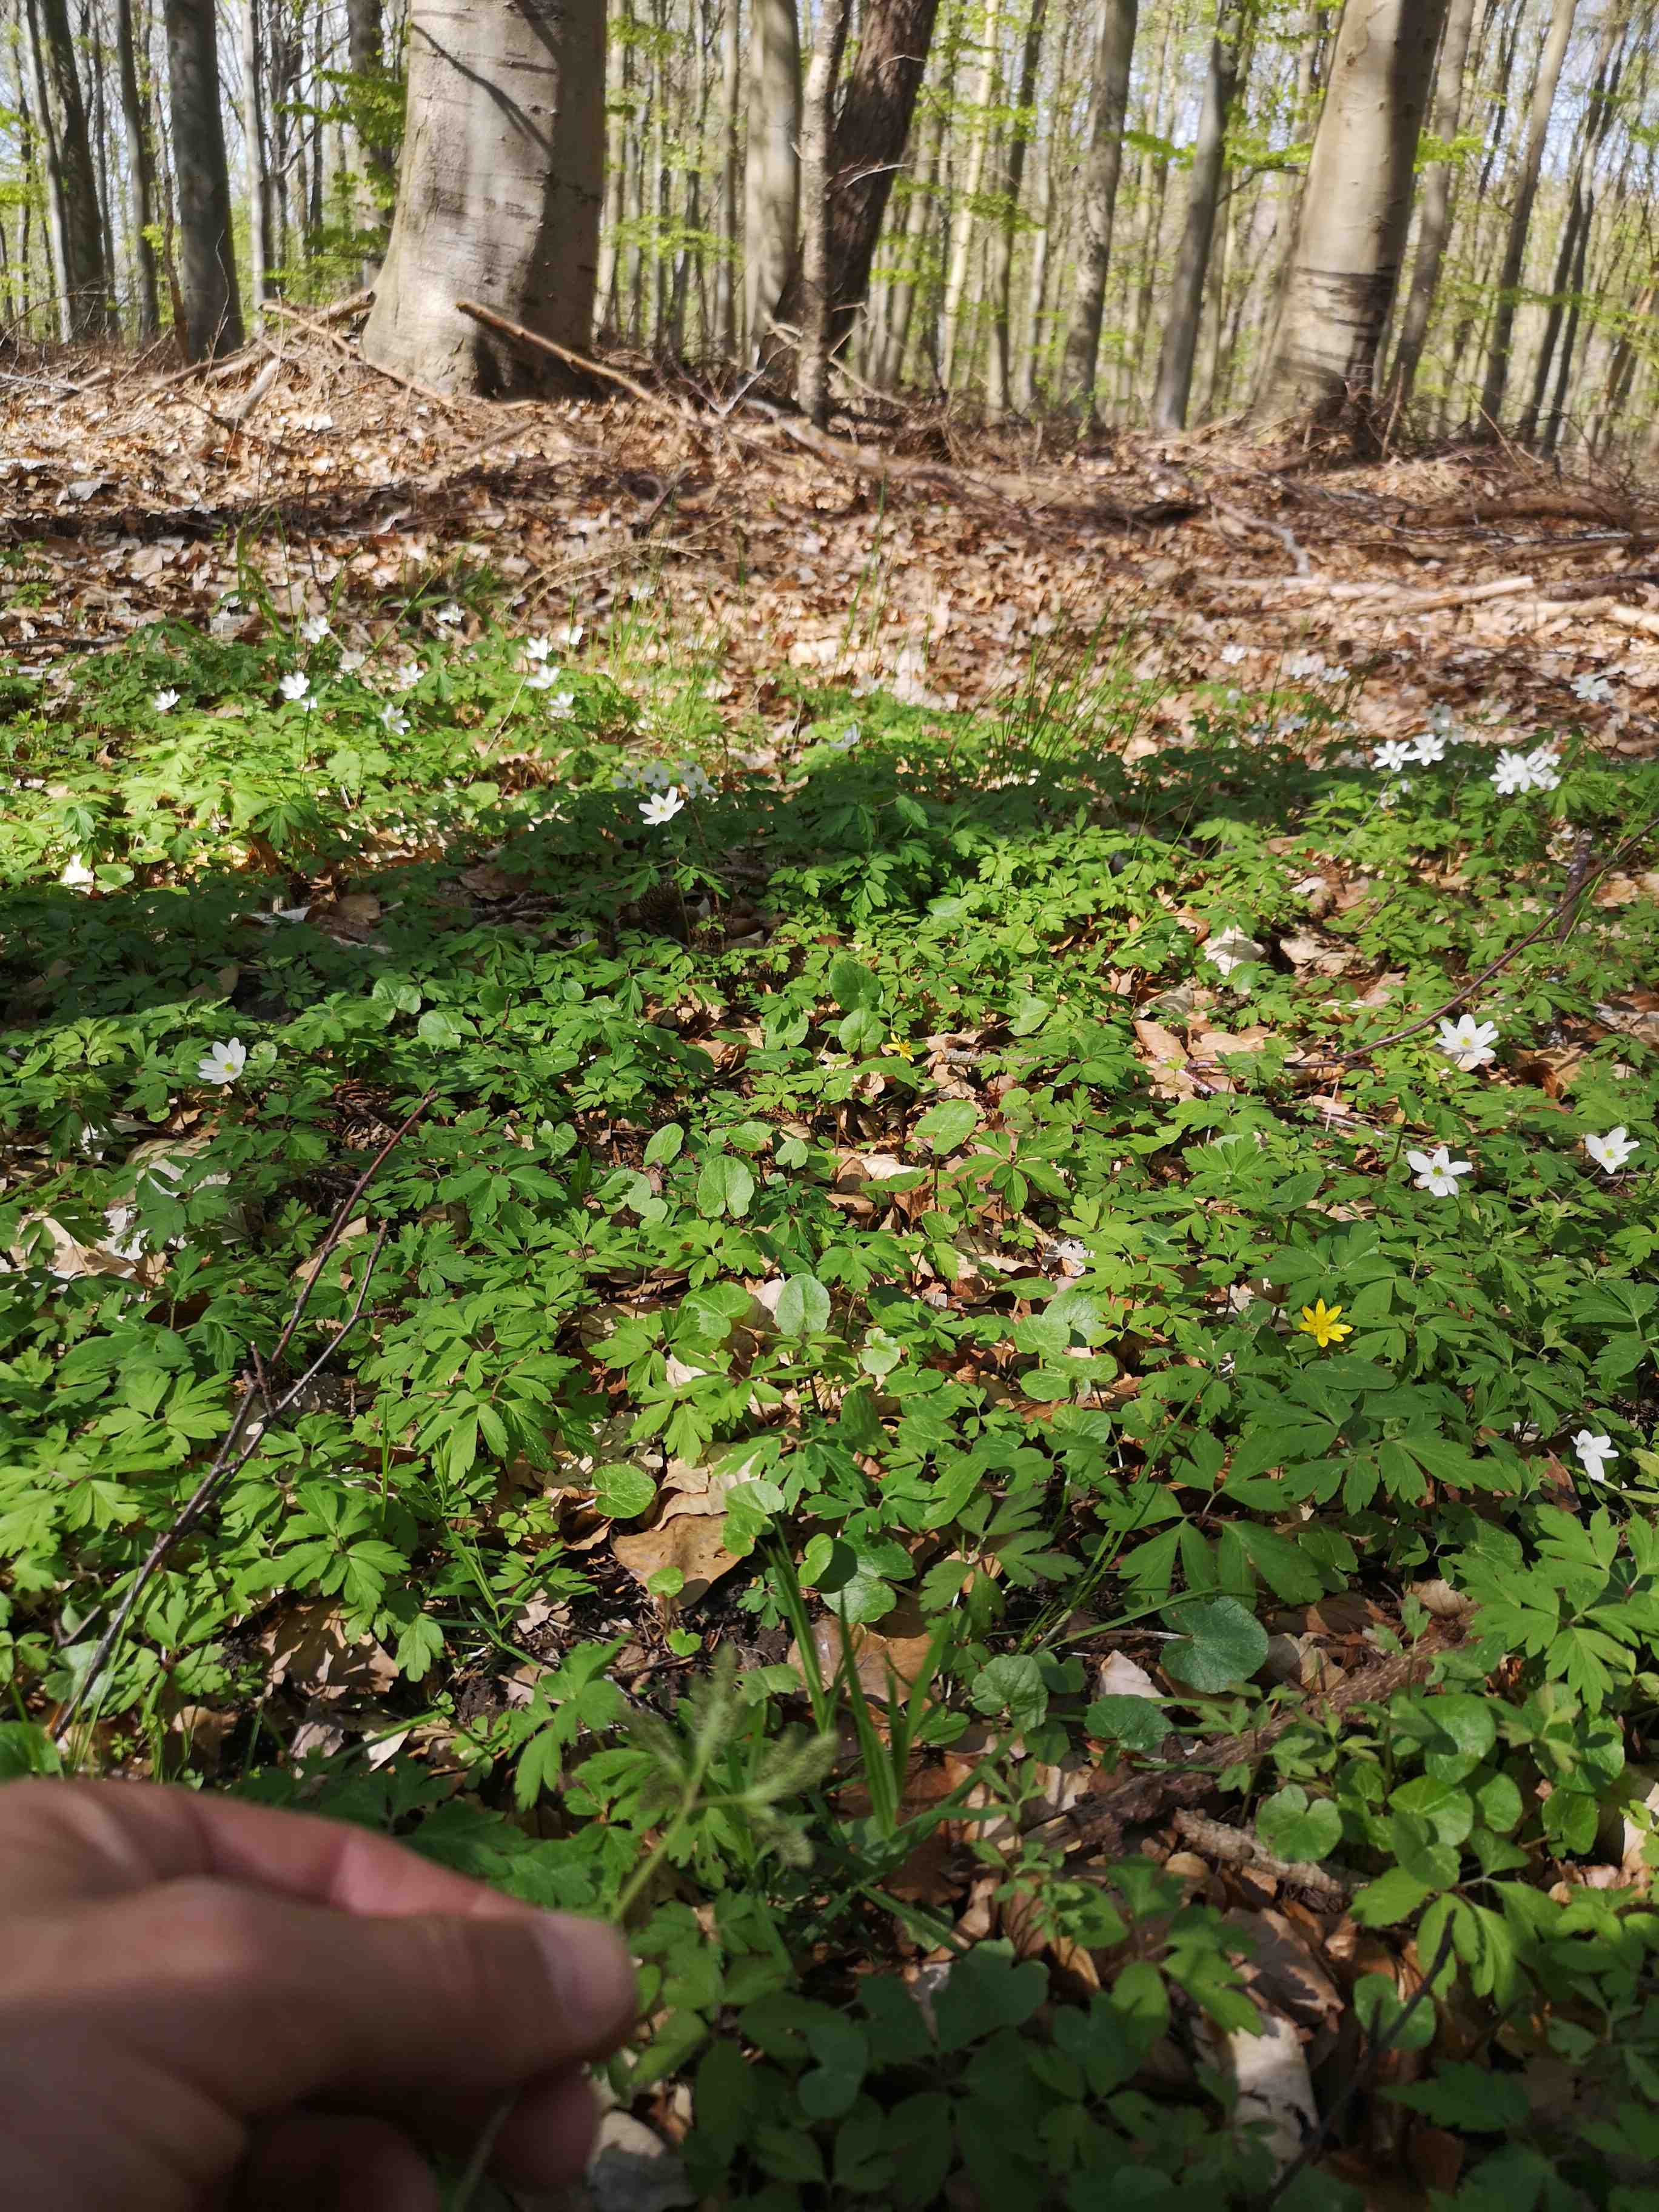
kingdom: Fungi
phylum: Basidiomycota
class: Pucciniomycetes
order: Pucciniales
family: Tranzscheliaceae
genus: Tranzschelia
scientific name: Tranzschelia anemones
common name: anemone-knæksporerust
